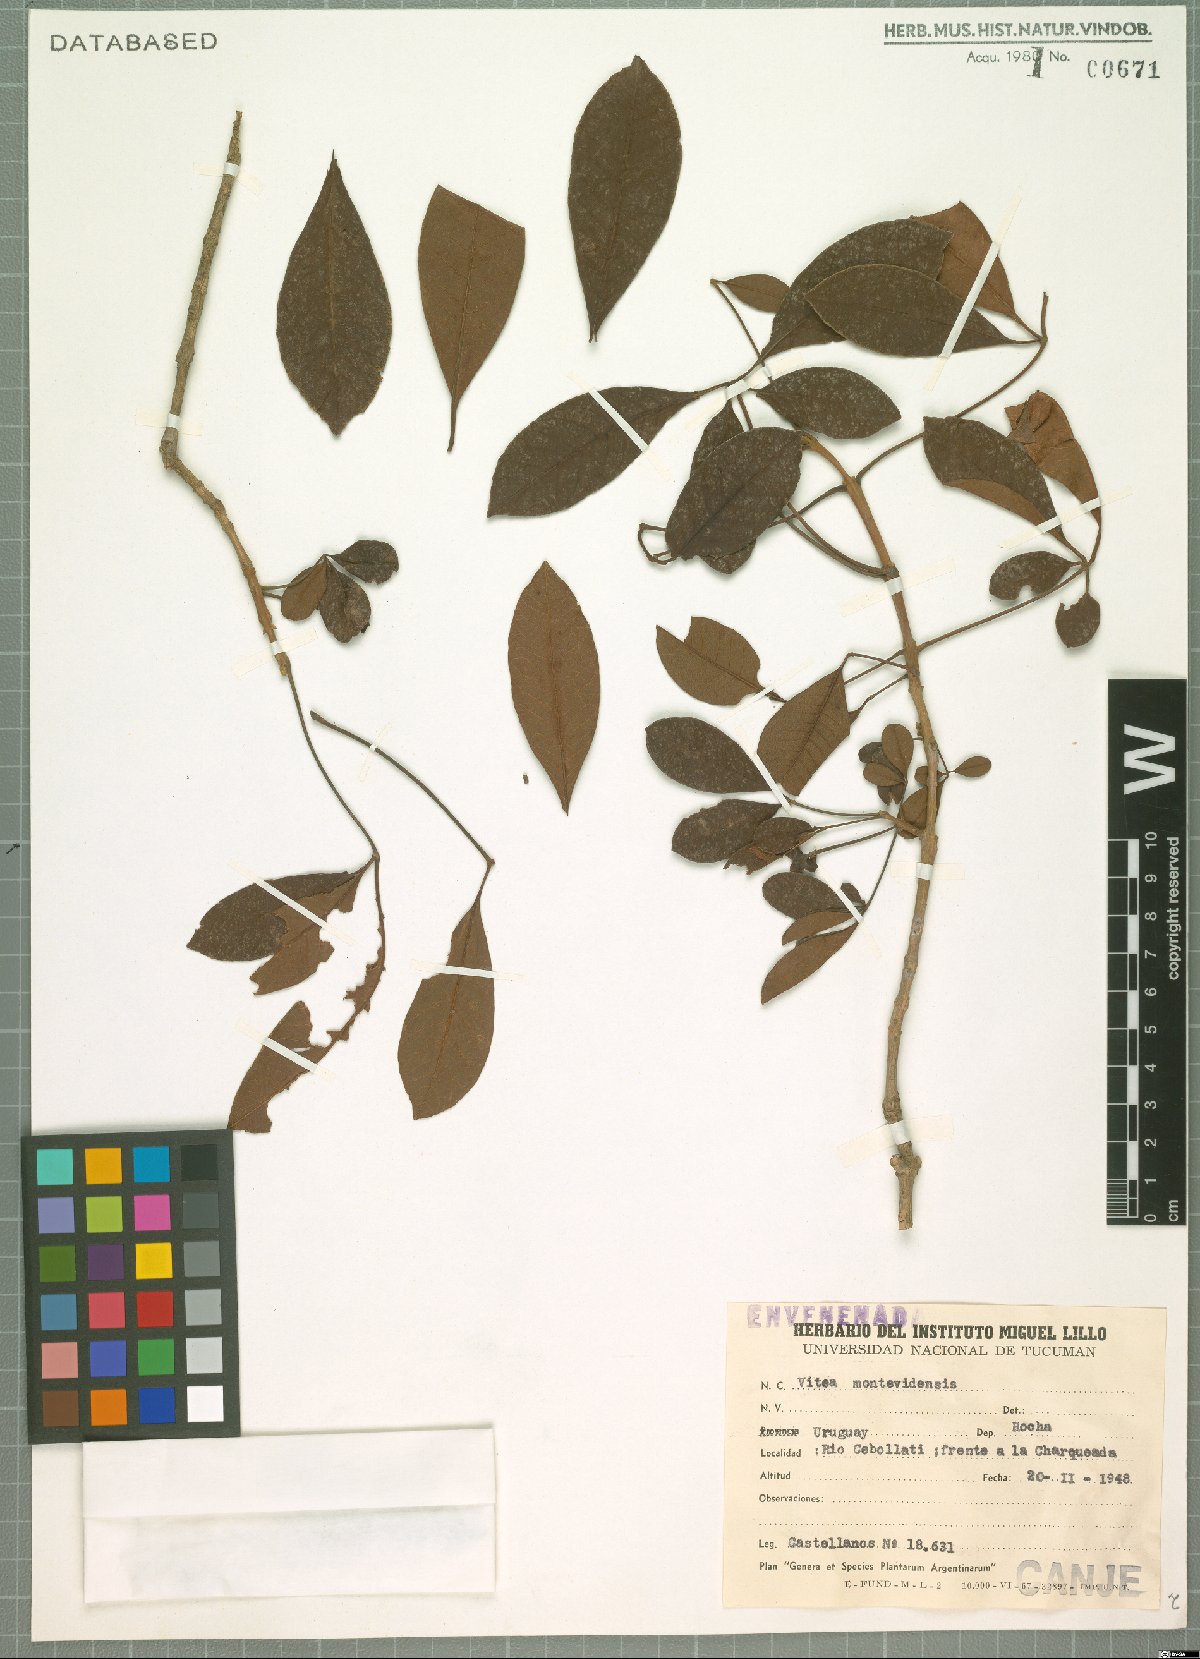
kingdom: Plantae
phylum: Tracheophyta
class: Magnoliopsida
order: Lamiales
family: Lamiaceae
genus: Vitex
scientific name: Vitex megapotamica
